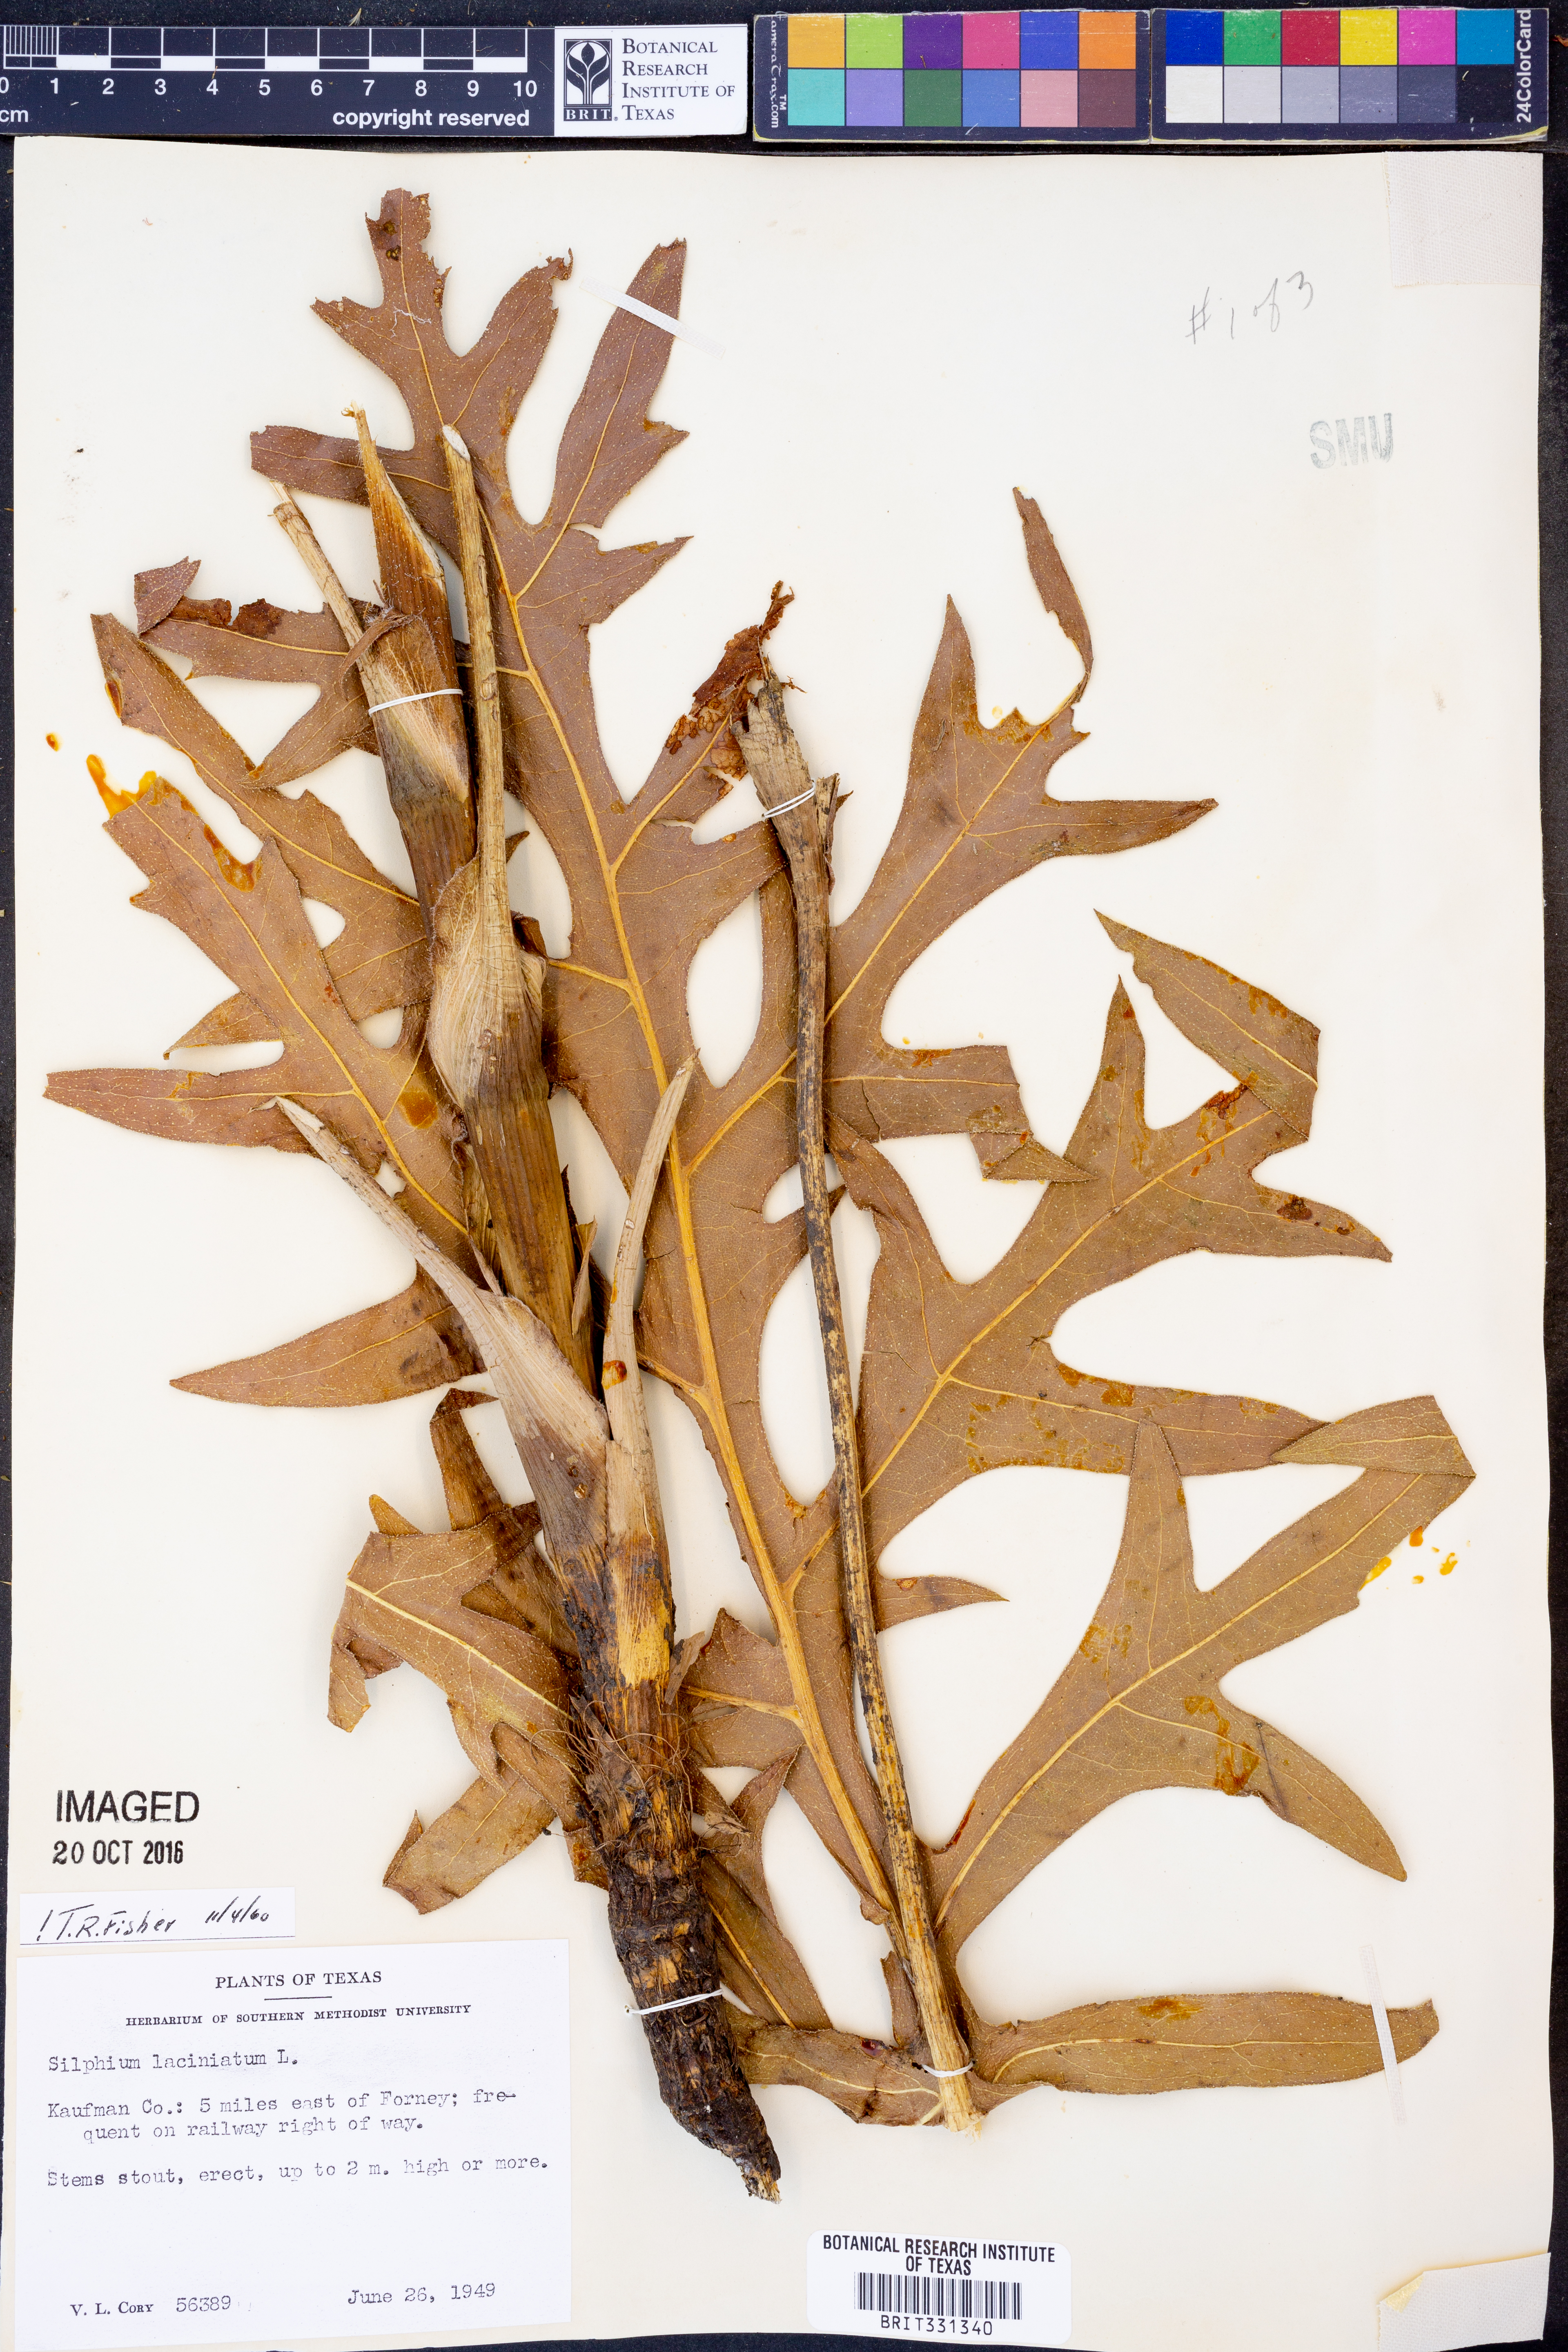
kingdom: Plantae
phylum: Tracheophyta
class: Magnoliopsida
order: Asterales
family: Asteraceae
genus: Silphium
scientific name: Silphium laciniatum
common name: Polarplant
